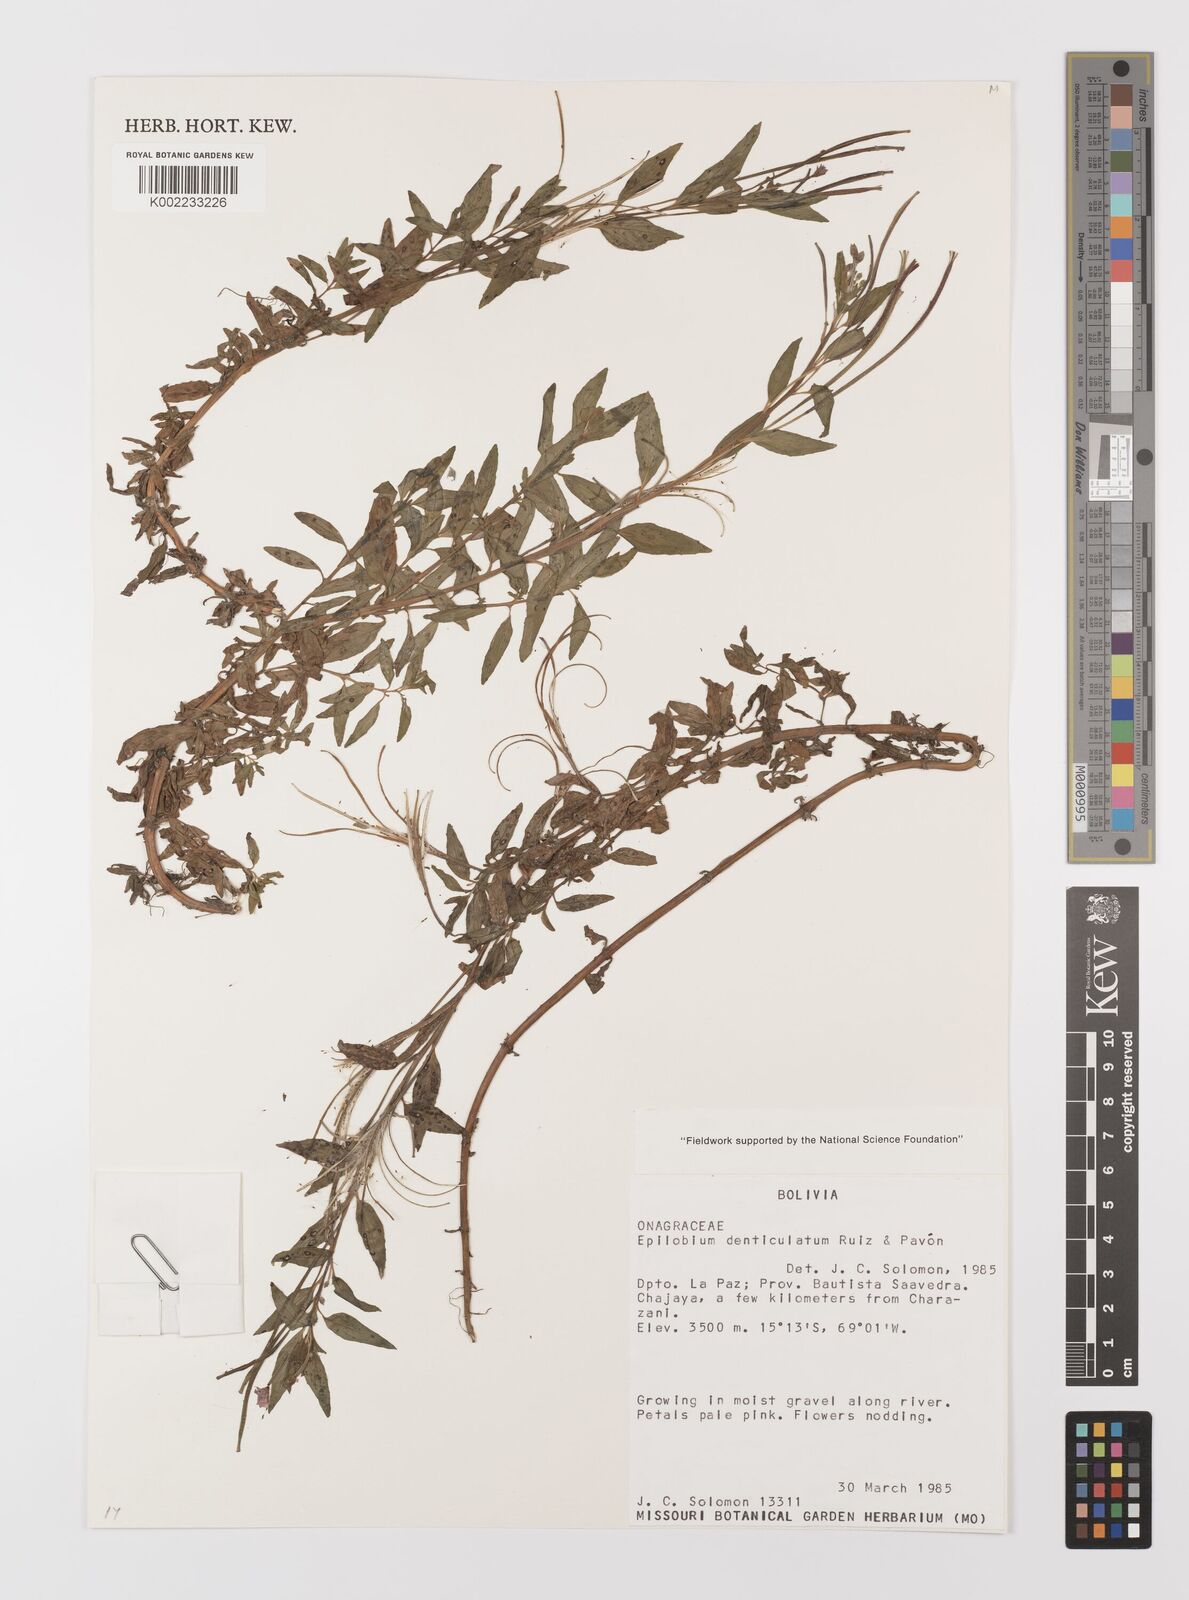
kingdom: Plantae
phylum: Tracheophyta
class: Magnoliopsida
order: Myrtales
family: Onagraceae
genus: Epilobium
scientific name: Epilobium denticulatum
